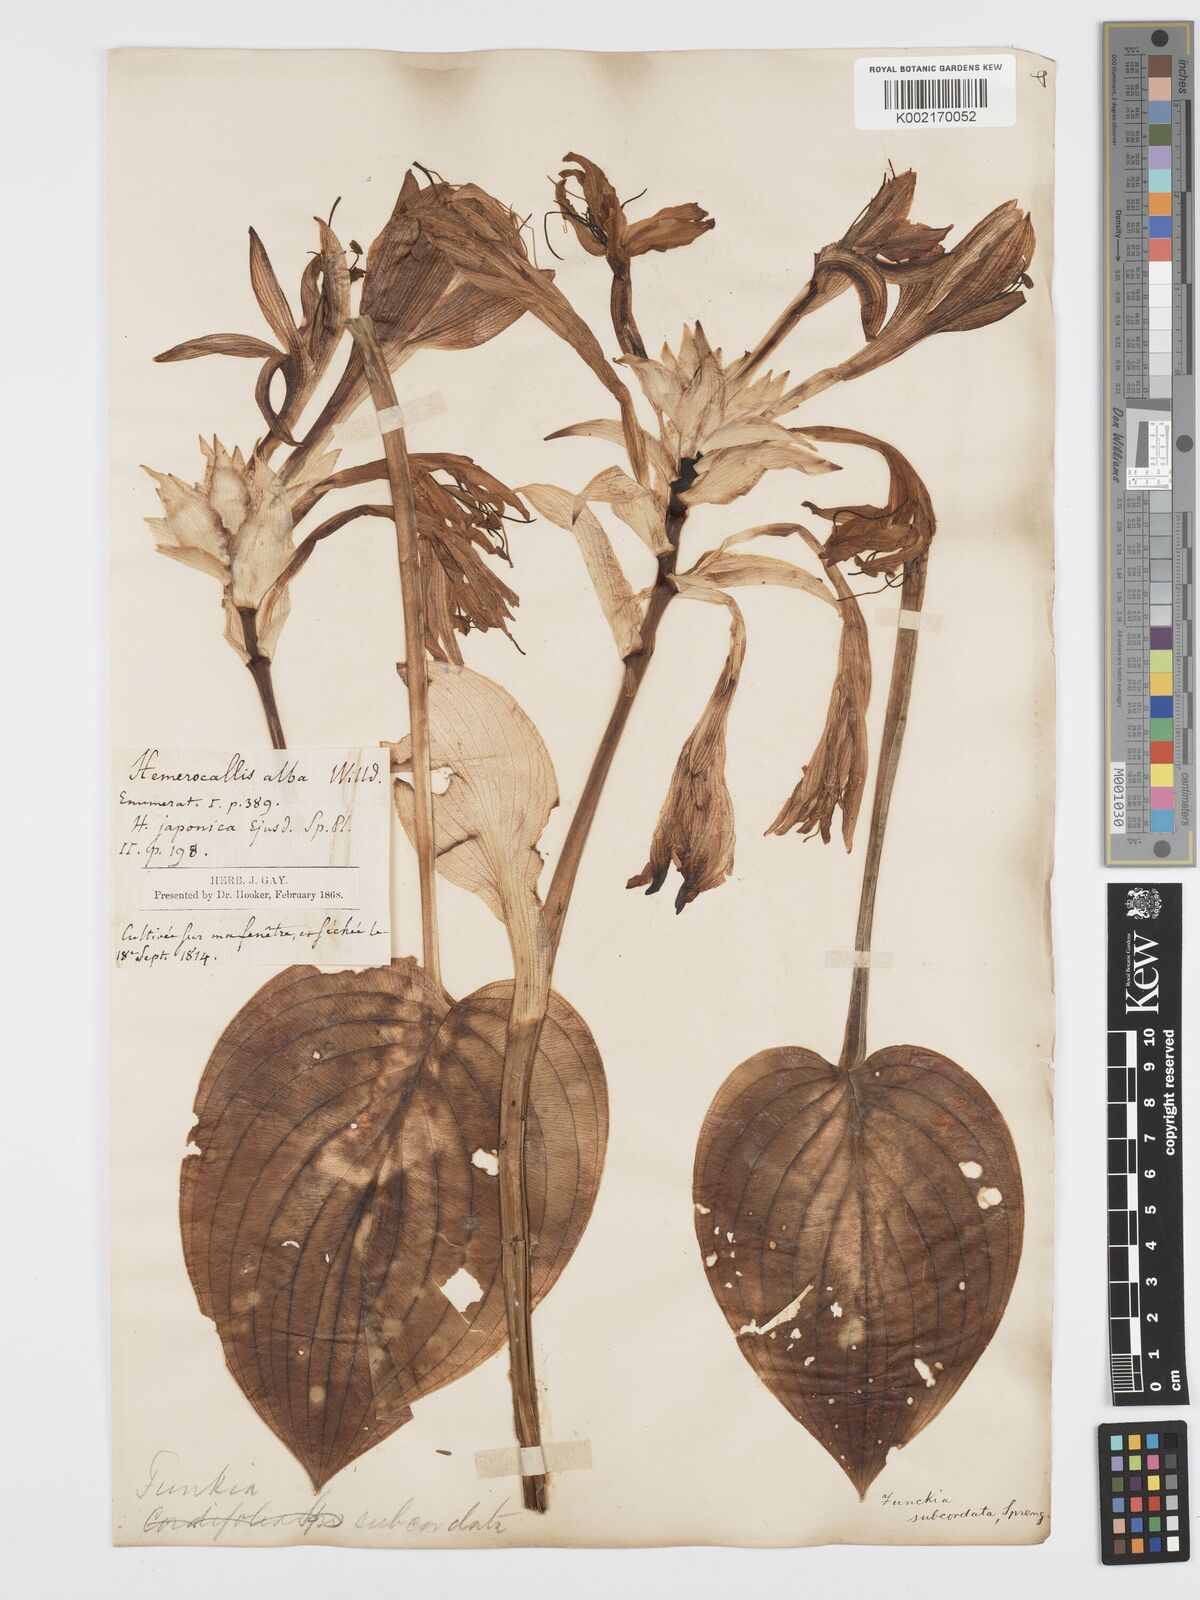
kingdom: Plantae
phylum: Tracheophyta
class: Liliopsida
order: Asparagales
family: Asparagaceae
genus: Hosta
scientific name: Hosta plantaginea
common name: August-lily
